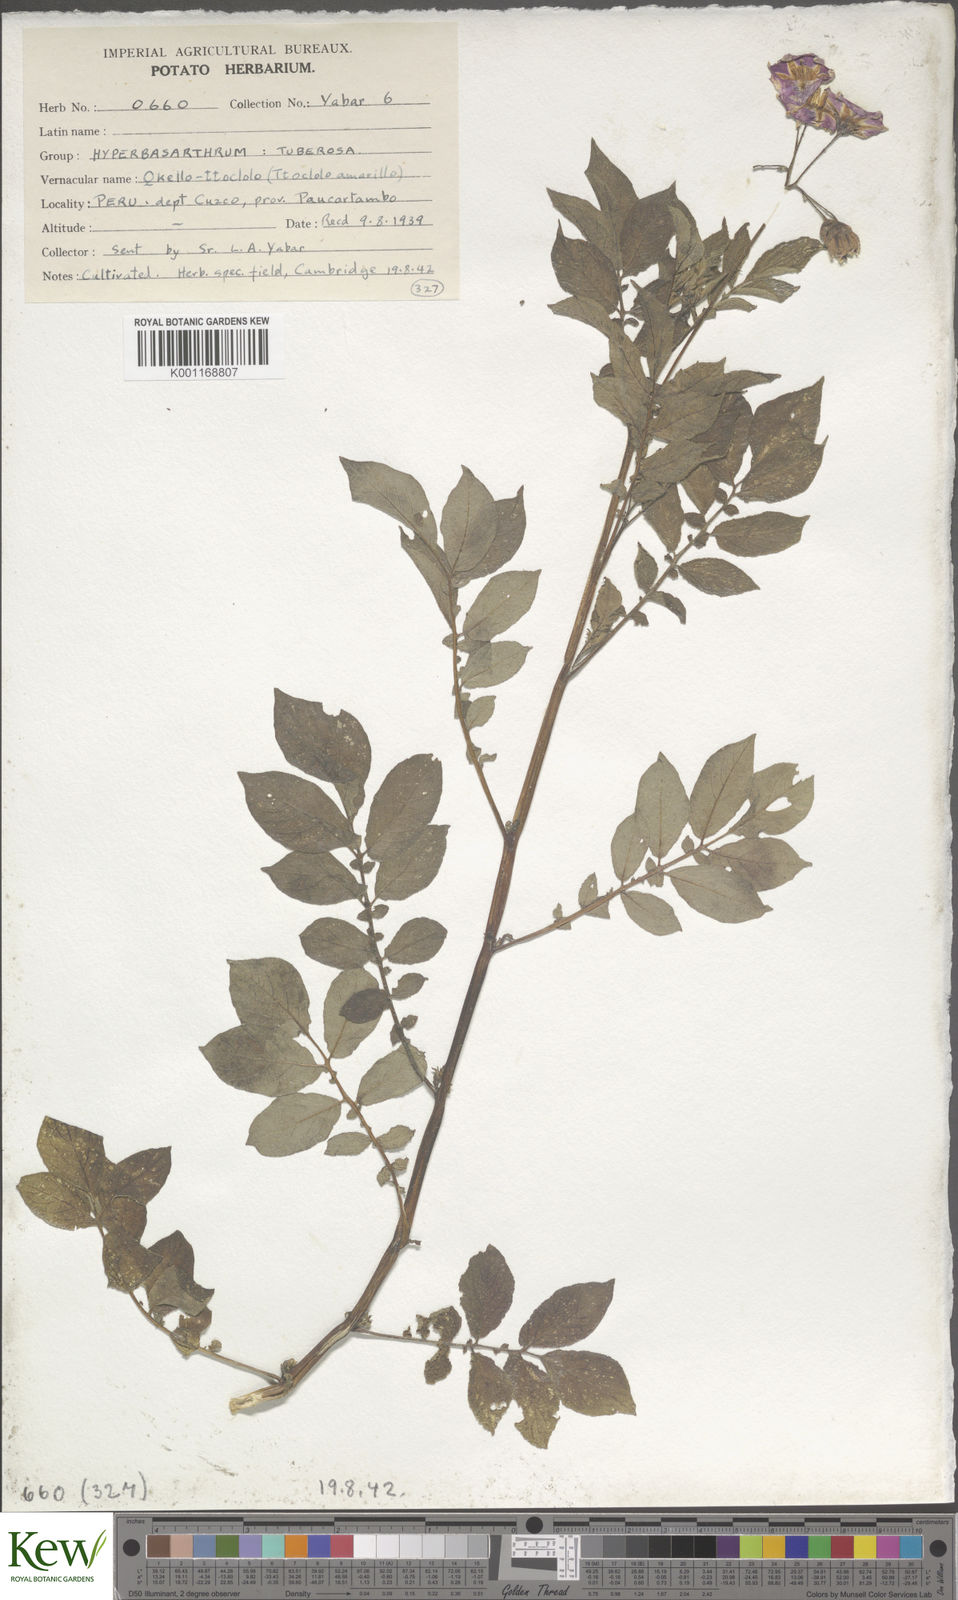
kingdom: Plantae
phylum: Tracheophyta
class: Magnoliopsida
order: Solanales
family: Solanaceae
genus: Solanum
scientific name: Solanum chaucha
